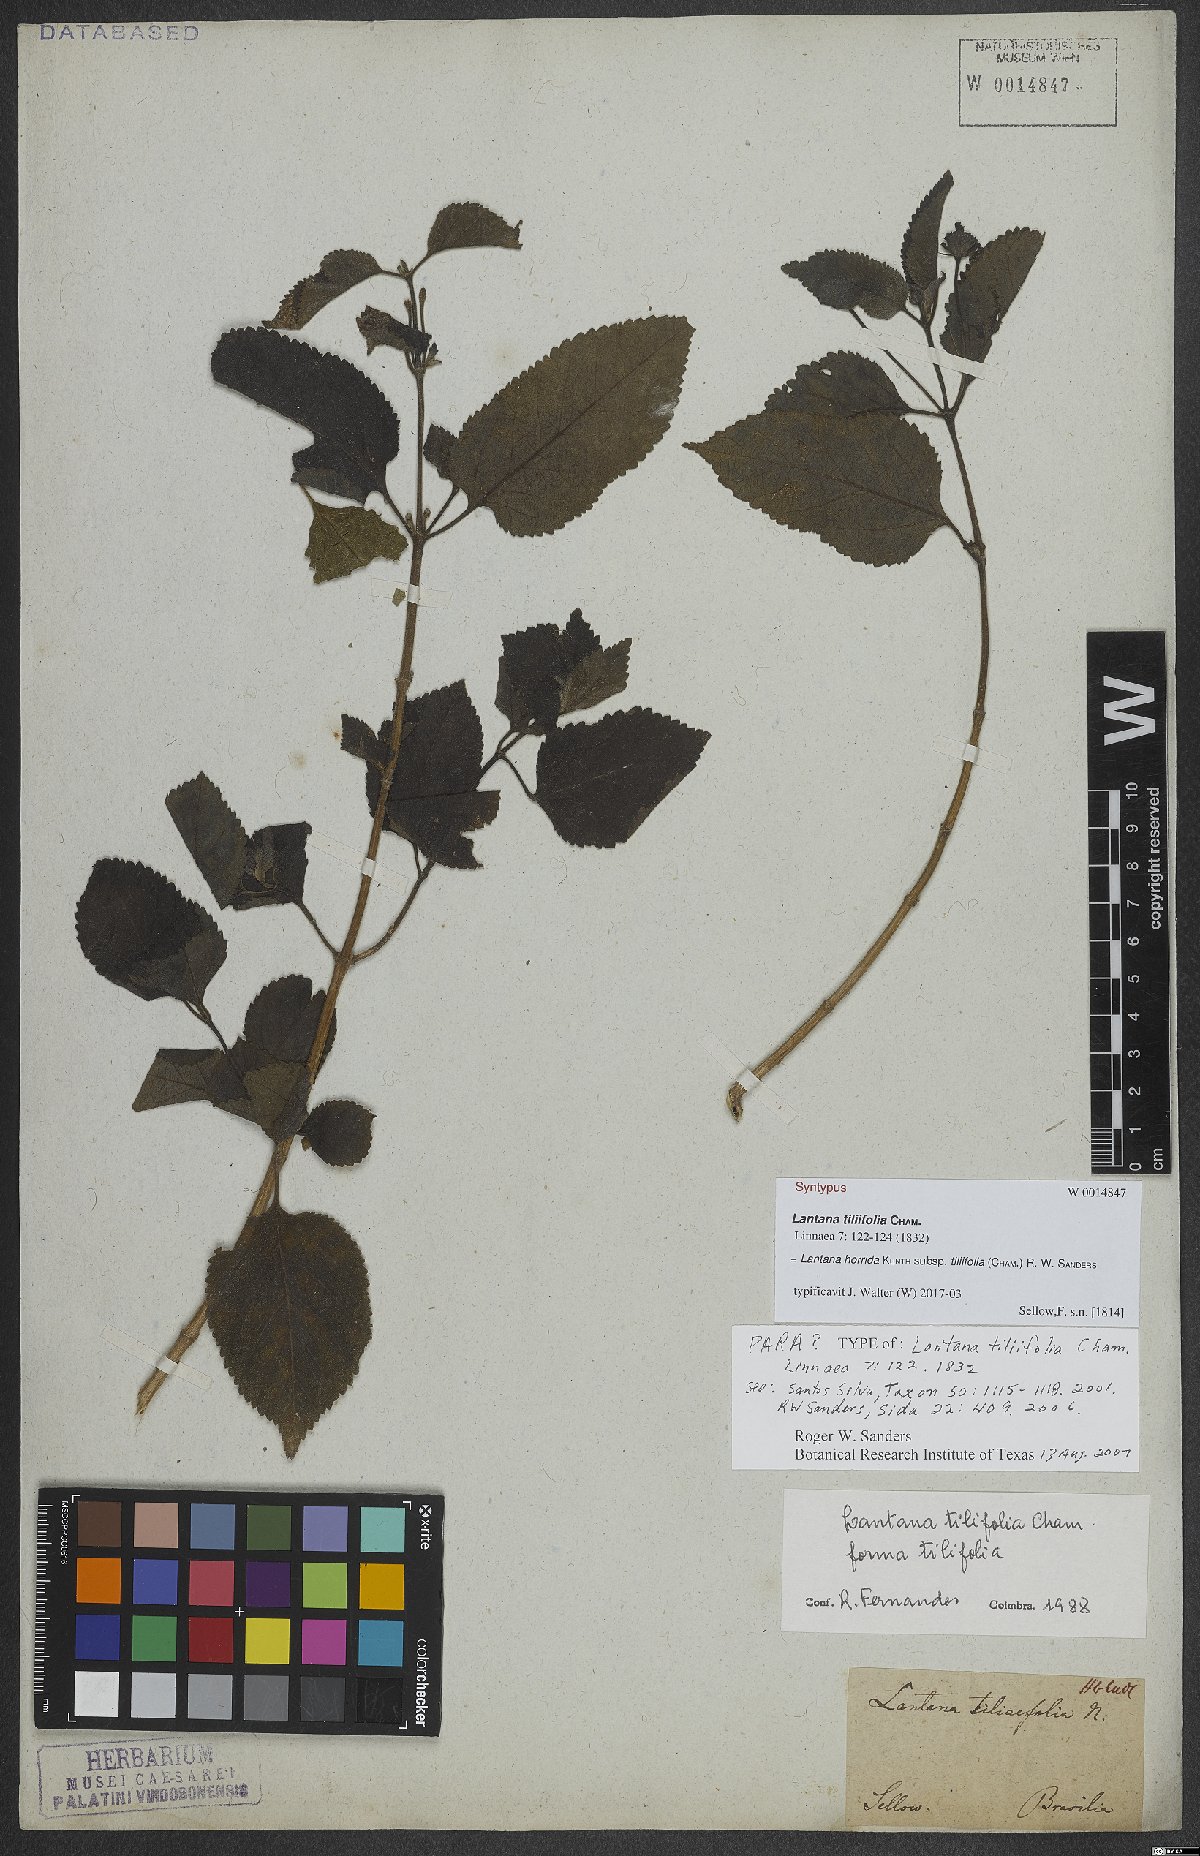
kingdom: Plantae
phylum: Tracheophyta
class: Magnoliopsida
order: Lamiales
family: Verbenaceae
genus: Lantana
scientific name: Lantana horrida
